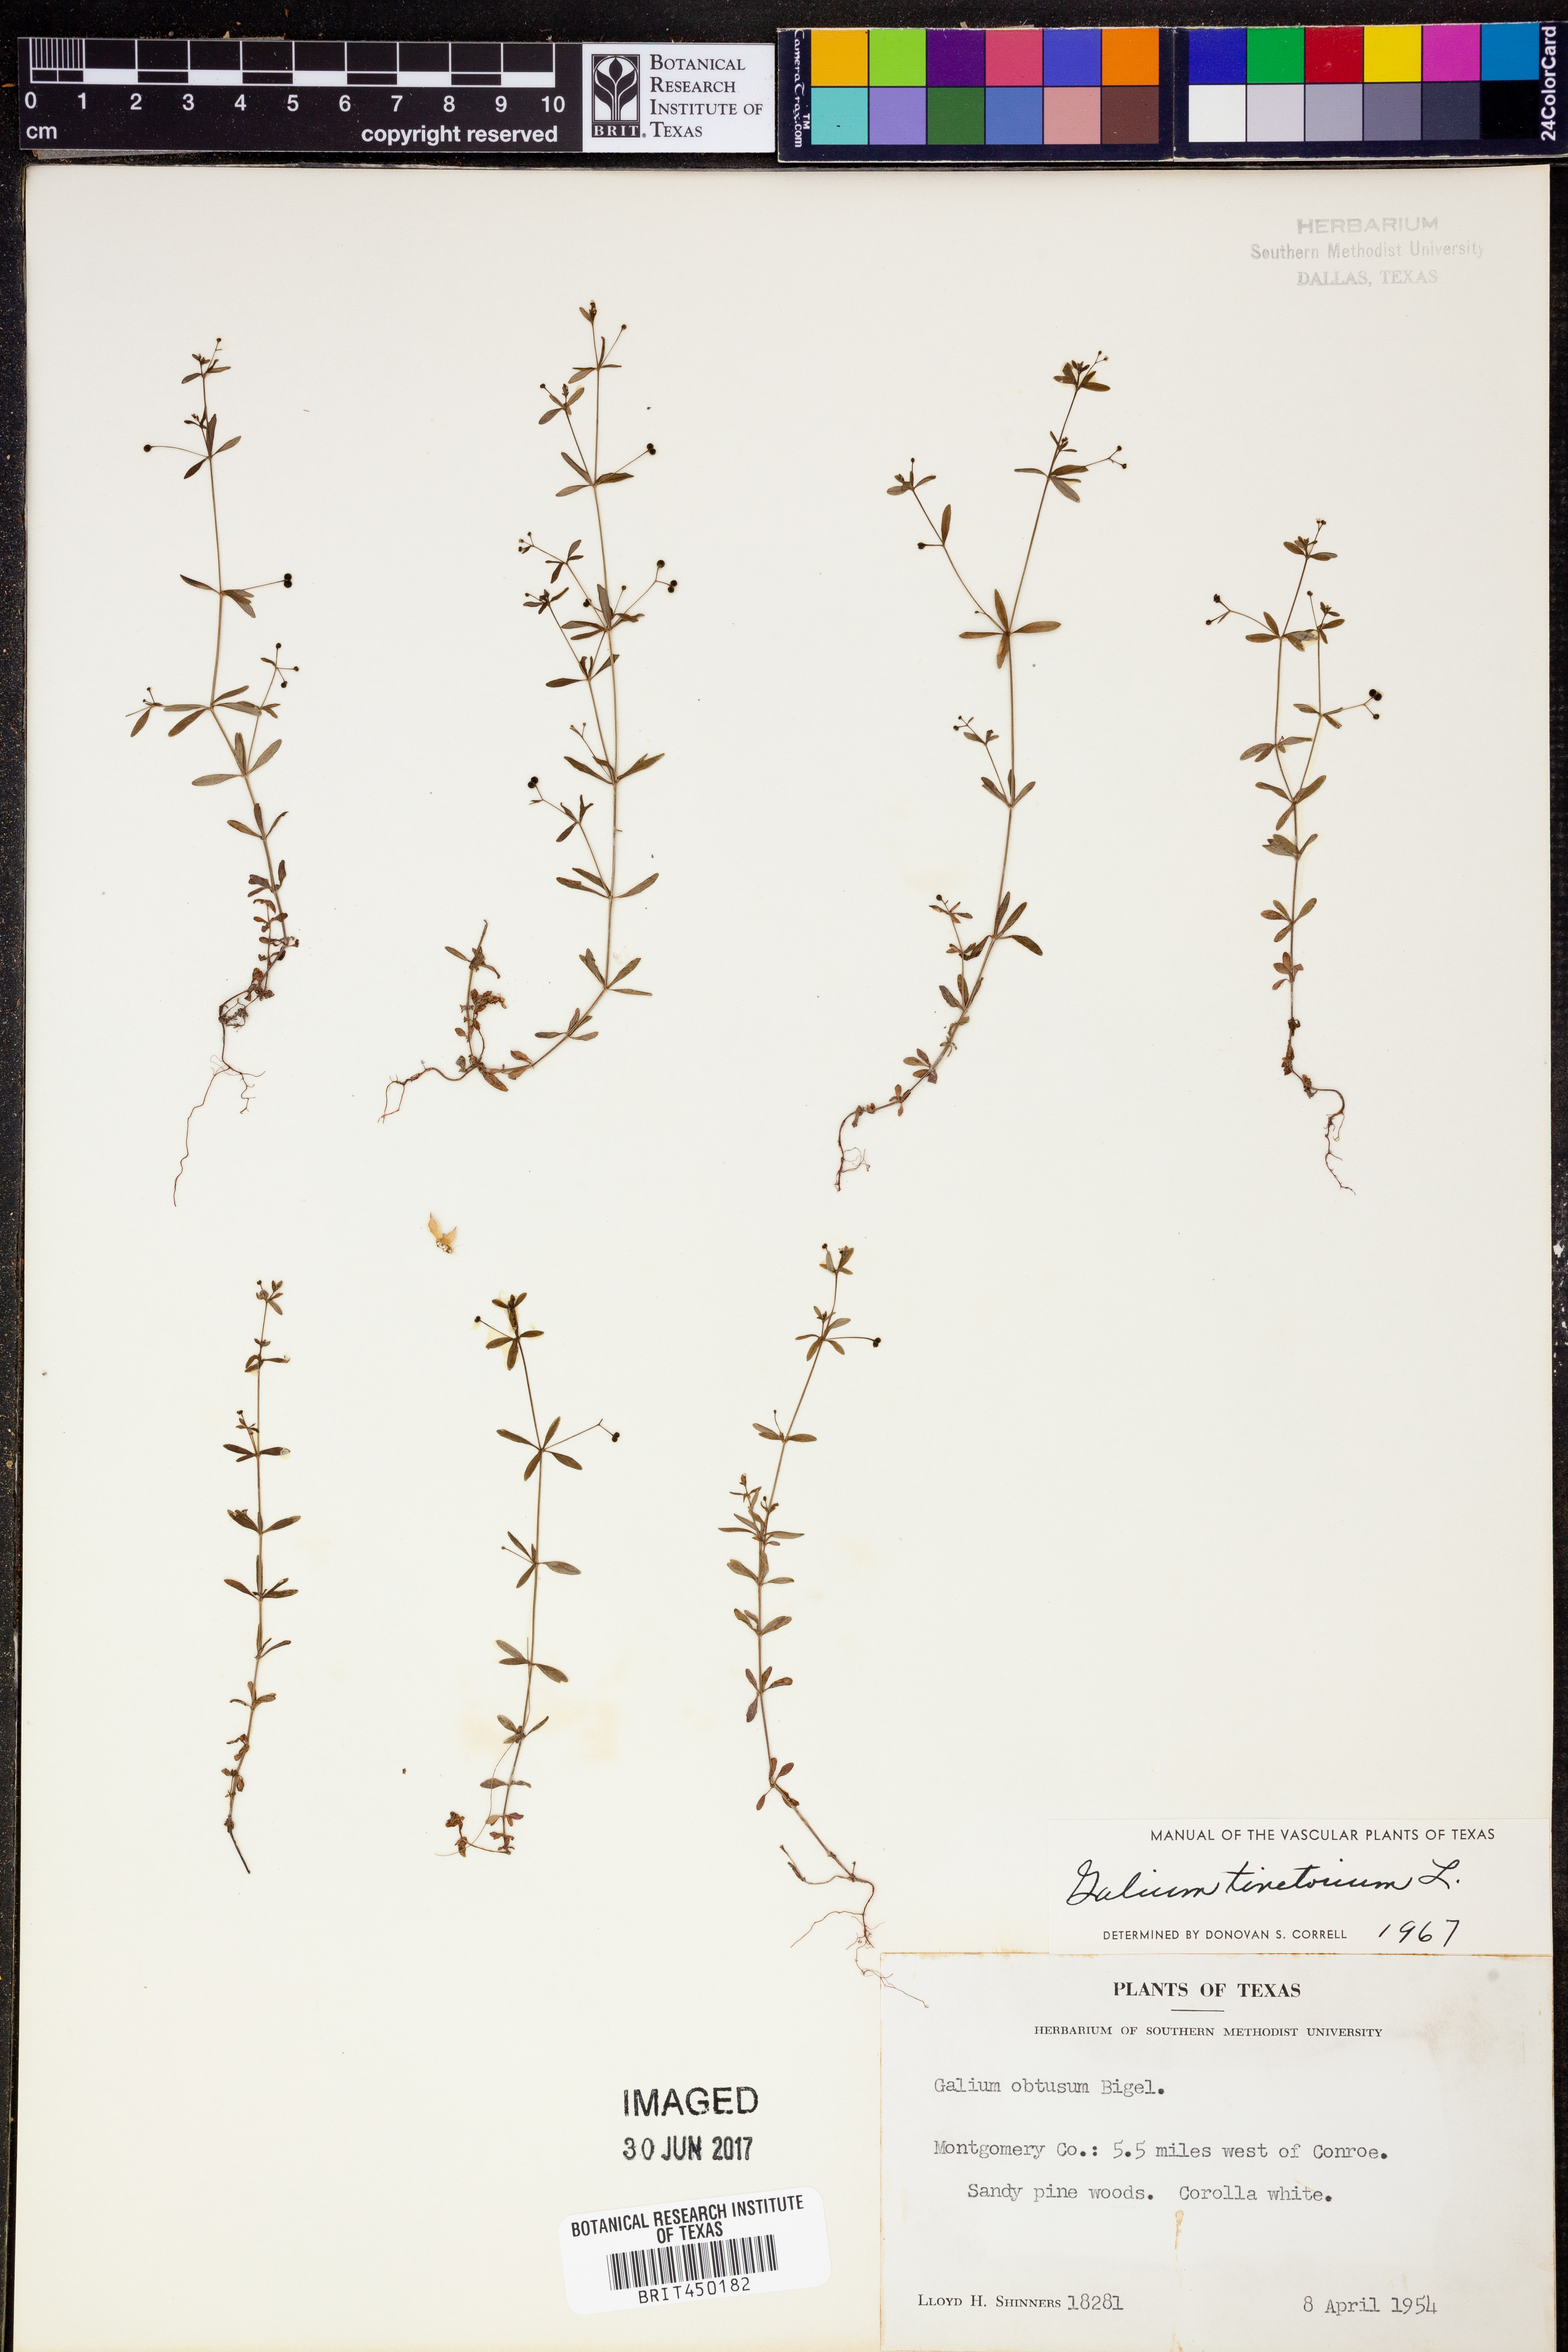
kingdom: Plantae
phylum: Tracheophyta
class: Magnoliopsida
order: Gentianales
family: Rubiaceae
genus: Asperula
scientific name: Asperula tinctoria
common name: Dyer's woodruff
